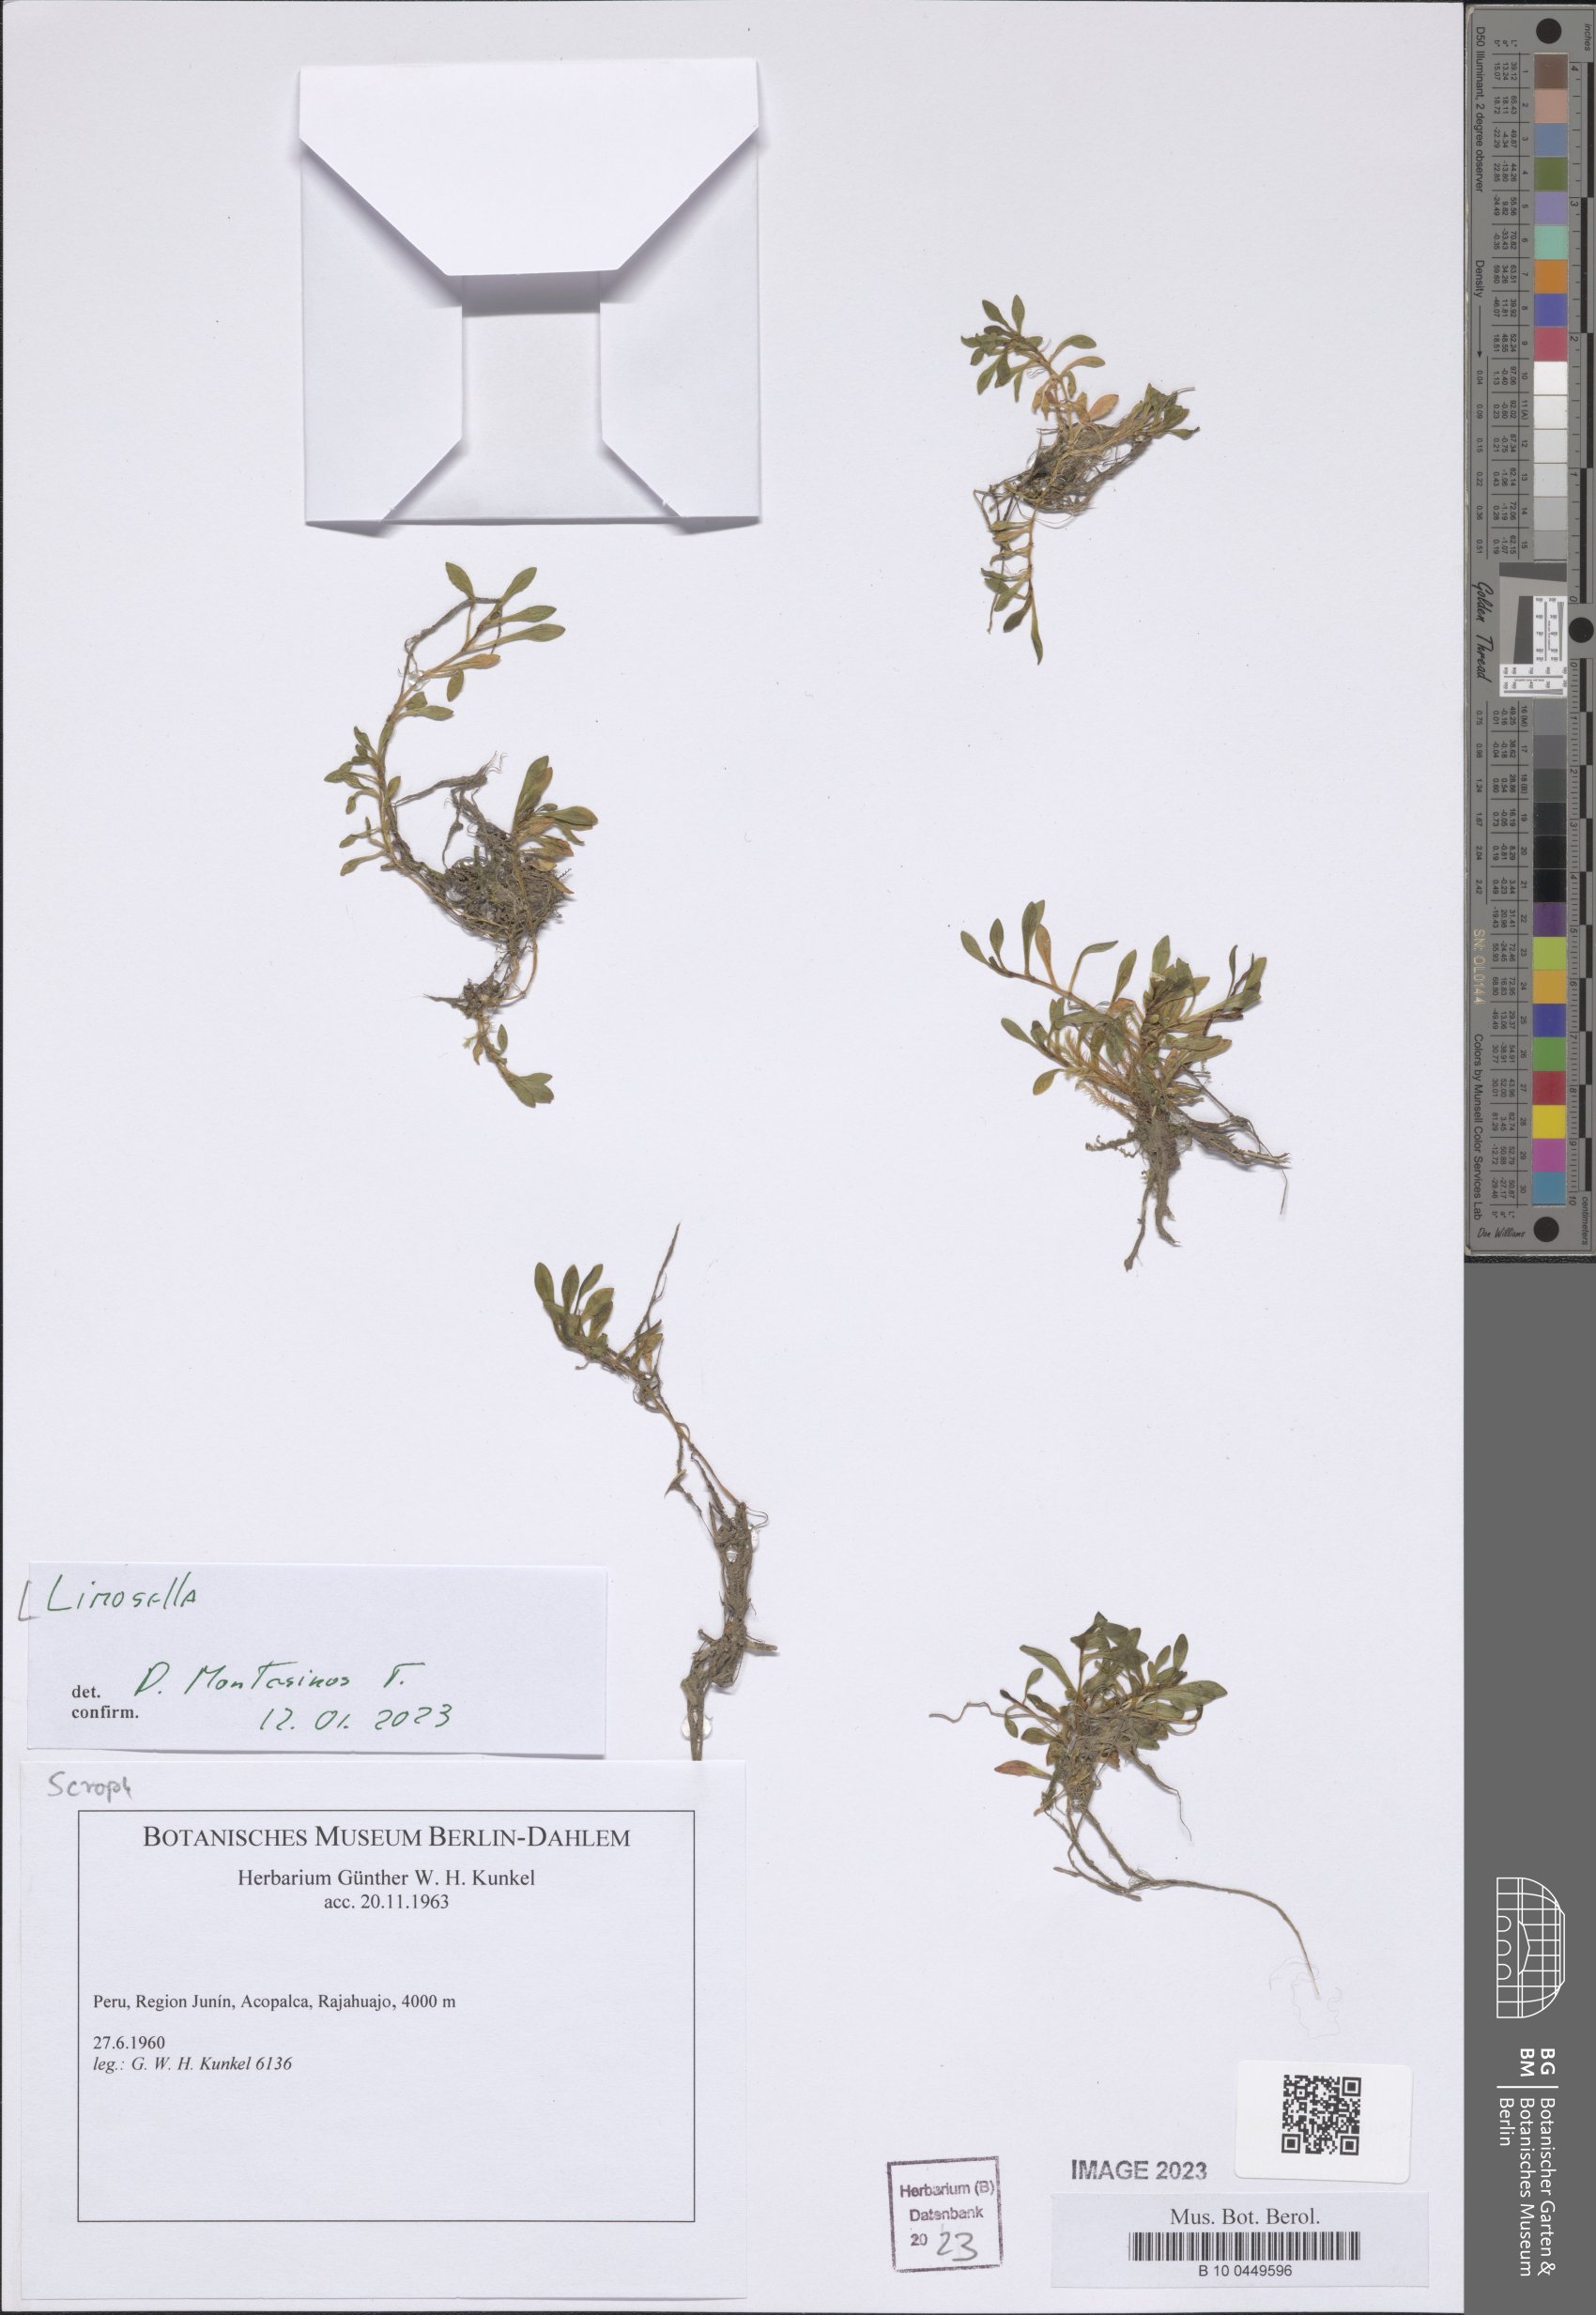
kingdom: Plantae
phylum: Tracheophyta
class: Magnoliopsida
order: Lamiales
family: Scrophulariaceae
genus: Limosella
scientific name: Limosella
